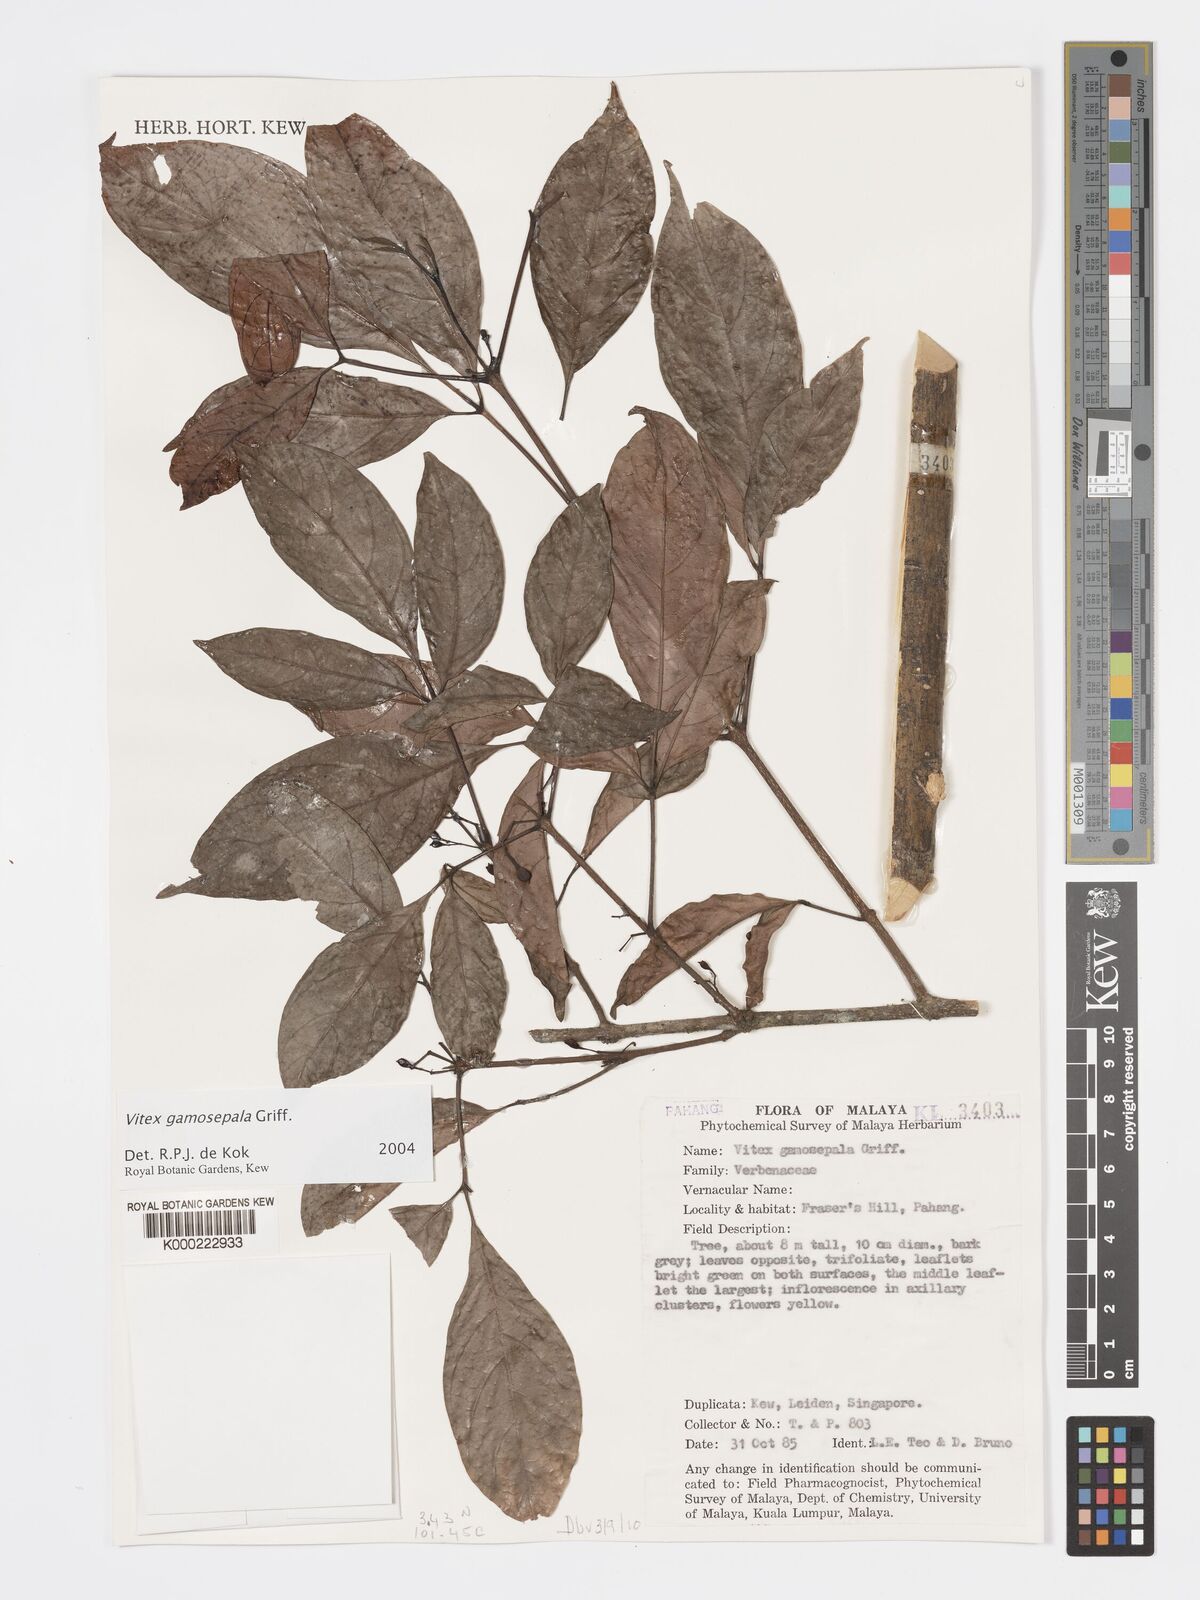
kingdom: Plantae
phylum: Tracheophyta
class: Magnoliopsida
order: Lamiales
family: Lamiaceae
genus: Vitex
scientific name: Vitex gamosepala
